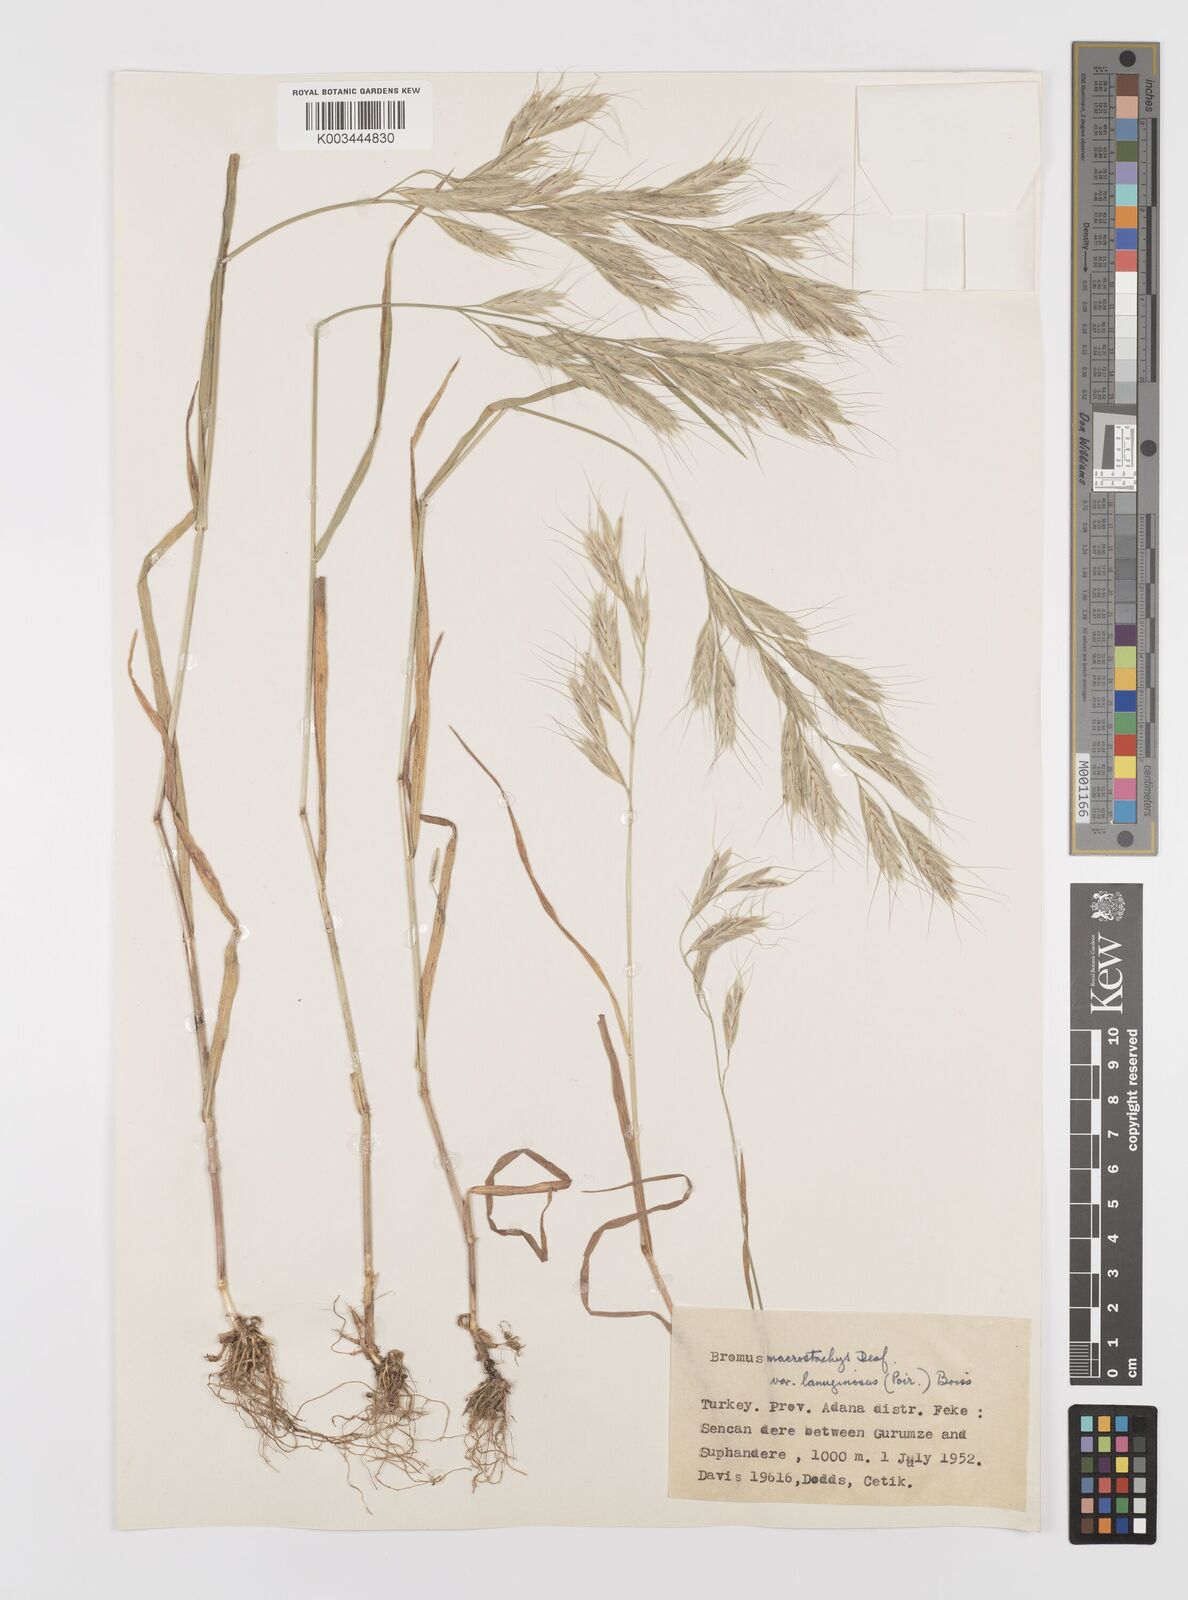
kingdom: Plantae
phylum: Tracheophyta
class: Liliopsida
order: Poales
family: Poaceae
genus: Bromus
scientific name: Bromus lanceolatus
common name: Mediterranean brome
